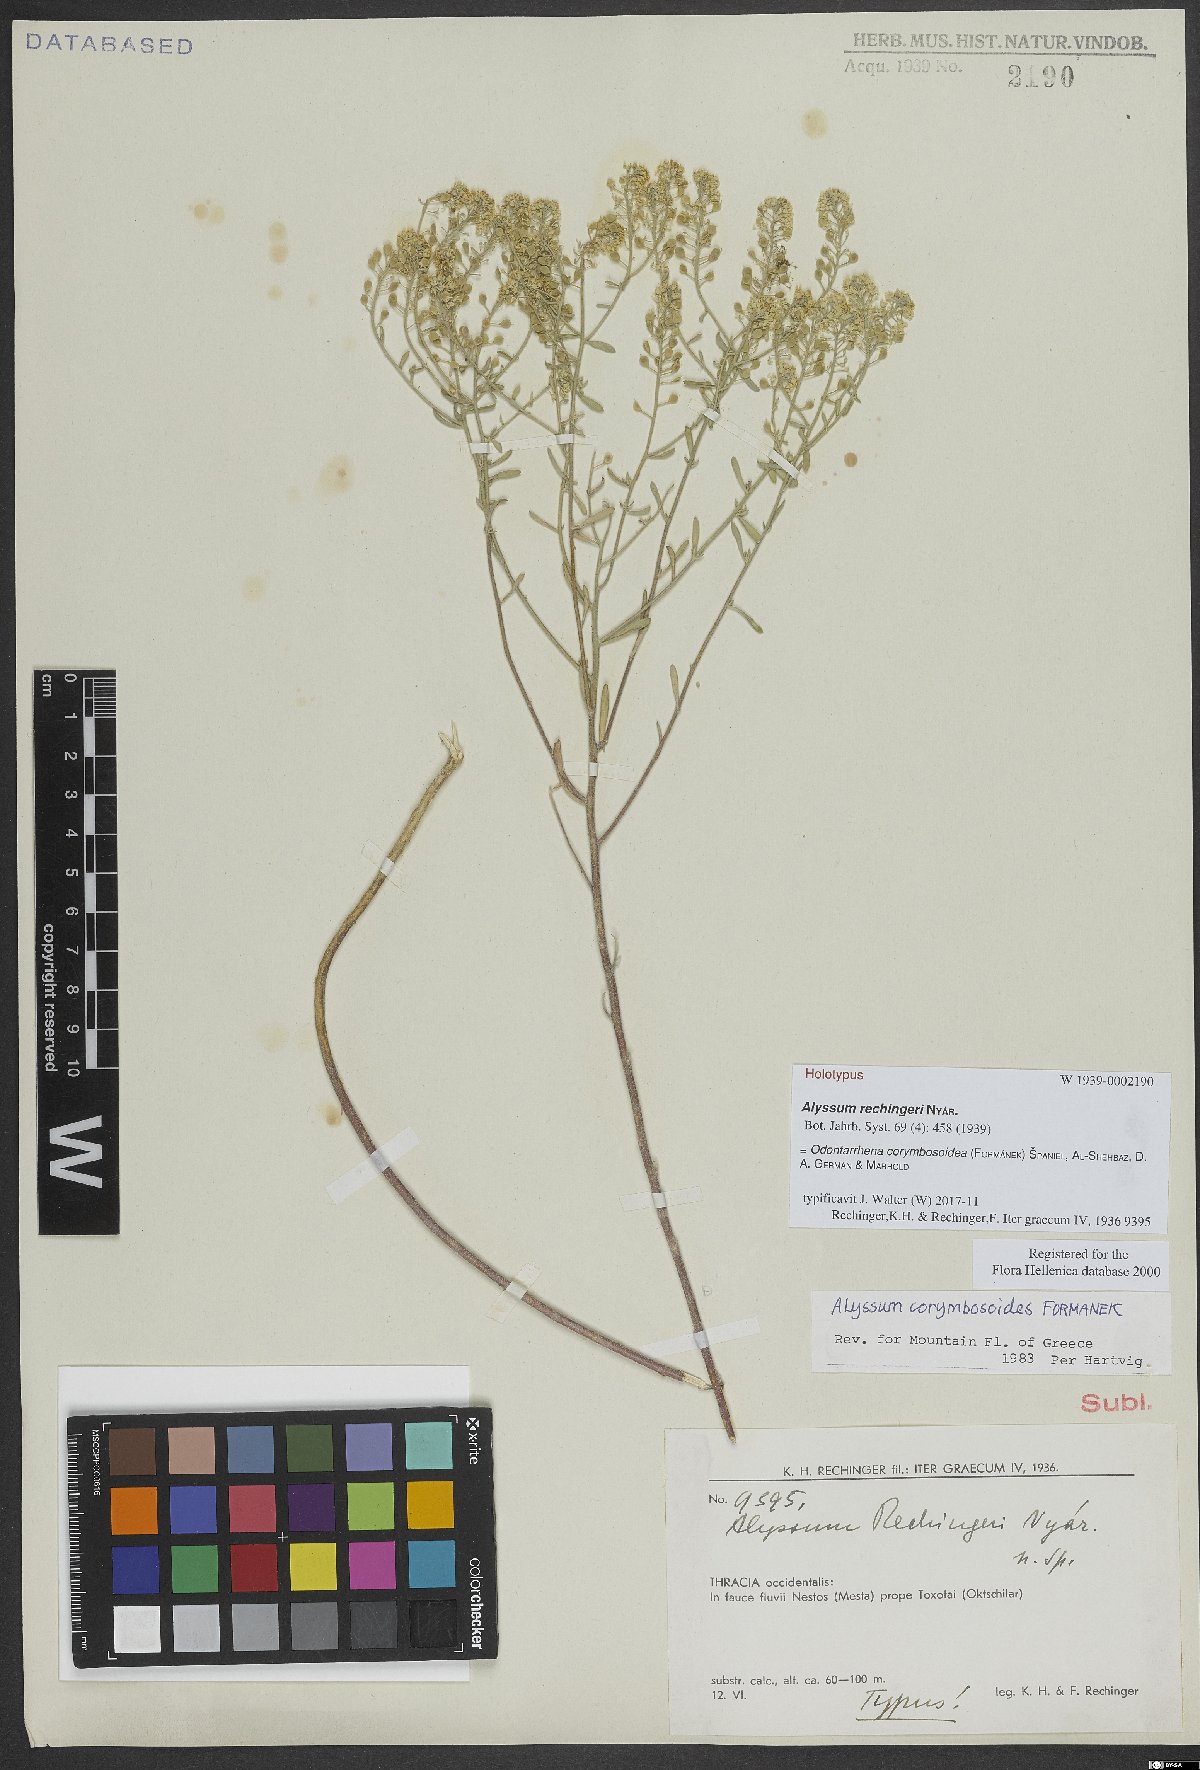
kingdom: Plantae
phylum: Tracheophyta
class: Magnoliopsida
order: Brassicales
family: Brassicaceae
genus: Odontarrhena
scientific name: Odontarrhena corymbosoidea
